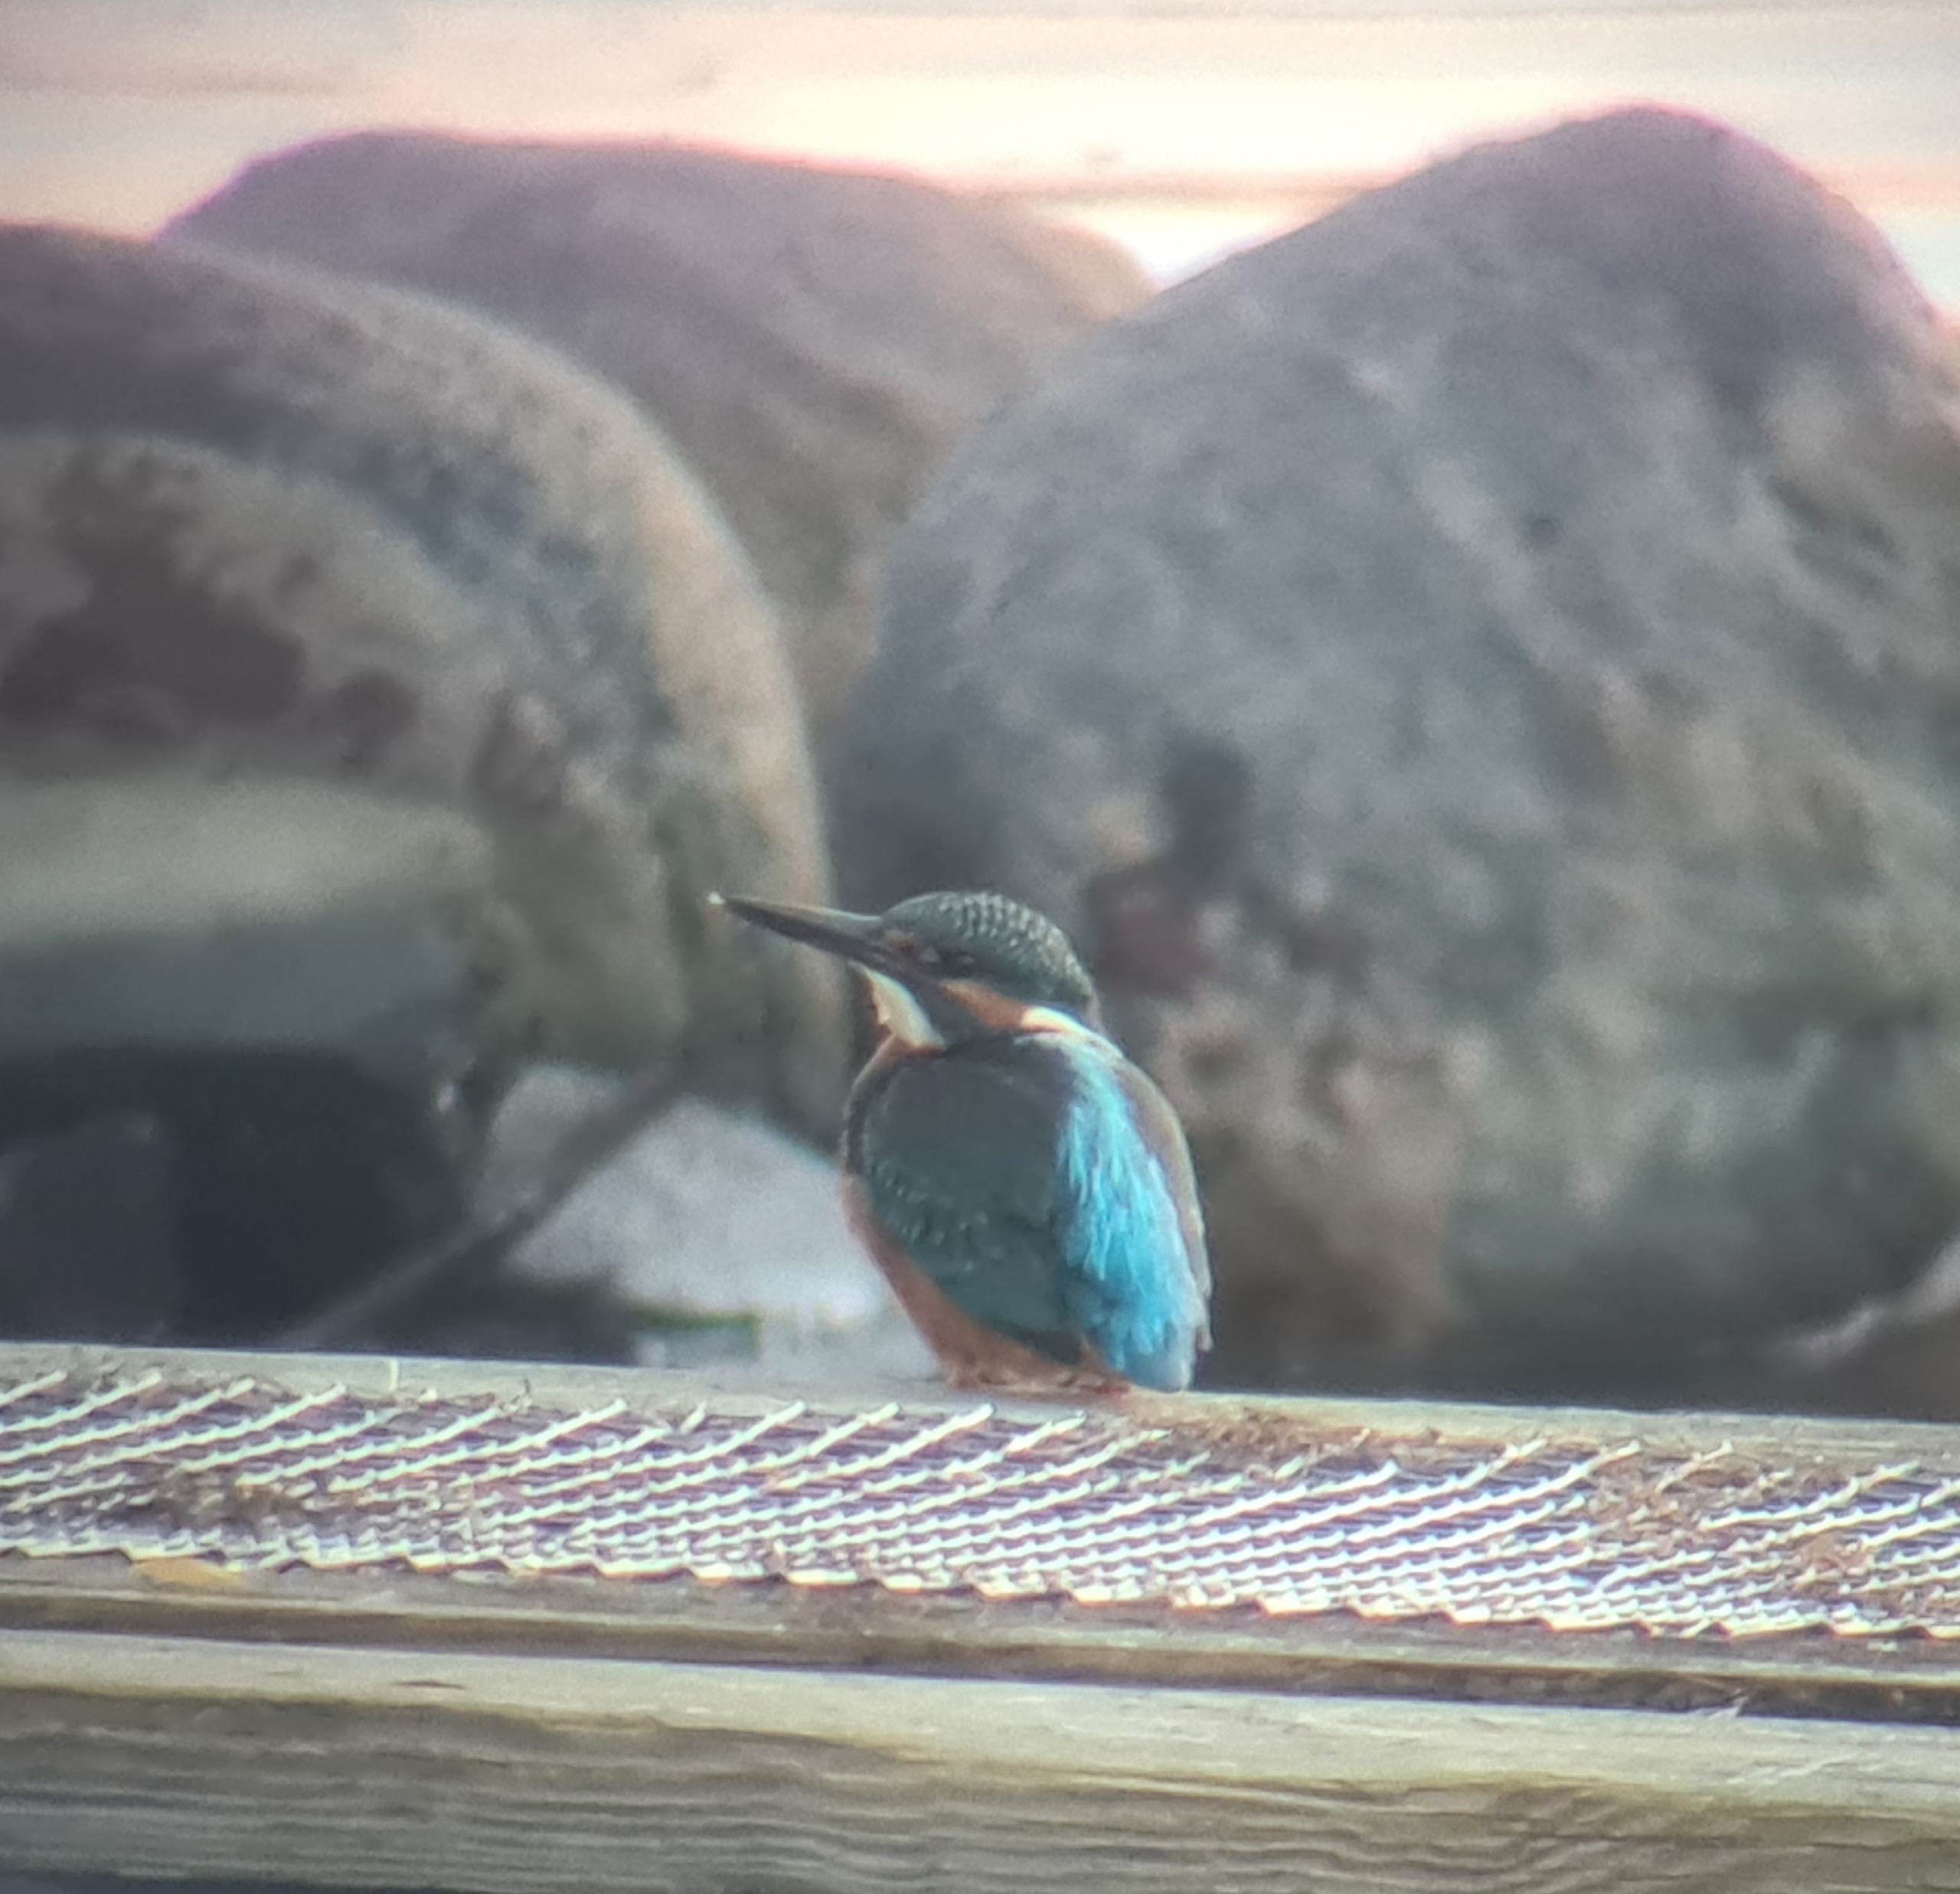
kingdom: Animalia
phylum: Chordata
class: Aves
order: Coraciiformes
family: Alcedinidae
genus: Alcedo
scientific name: Alcedo atthis
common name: Isfugl
